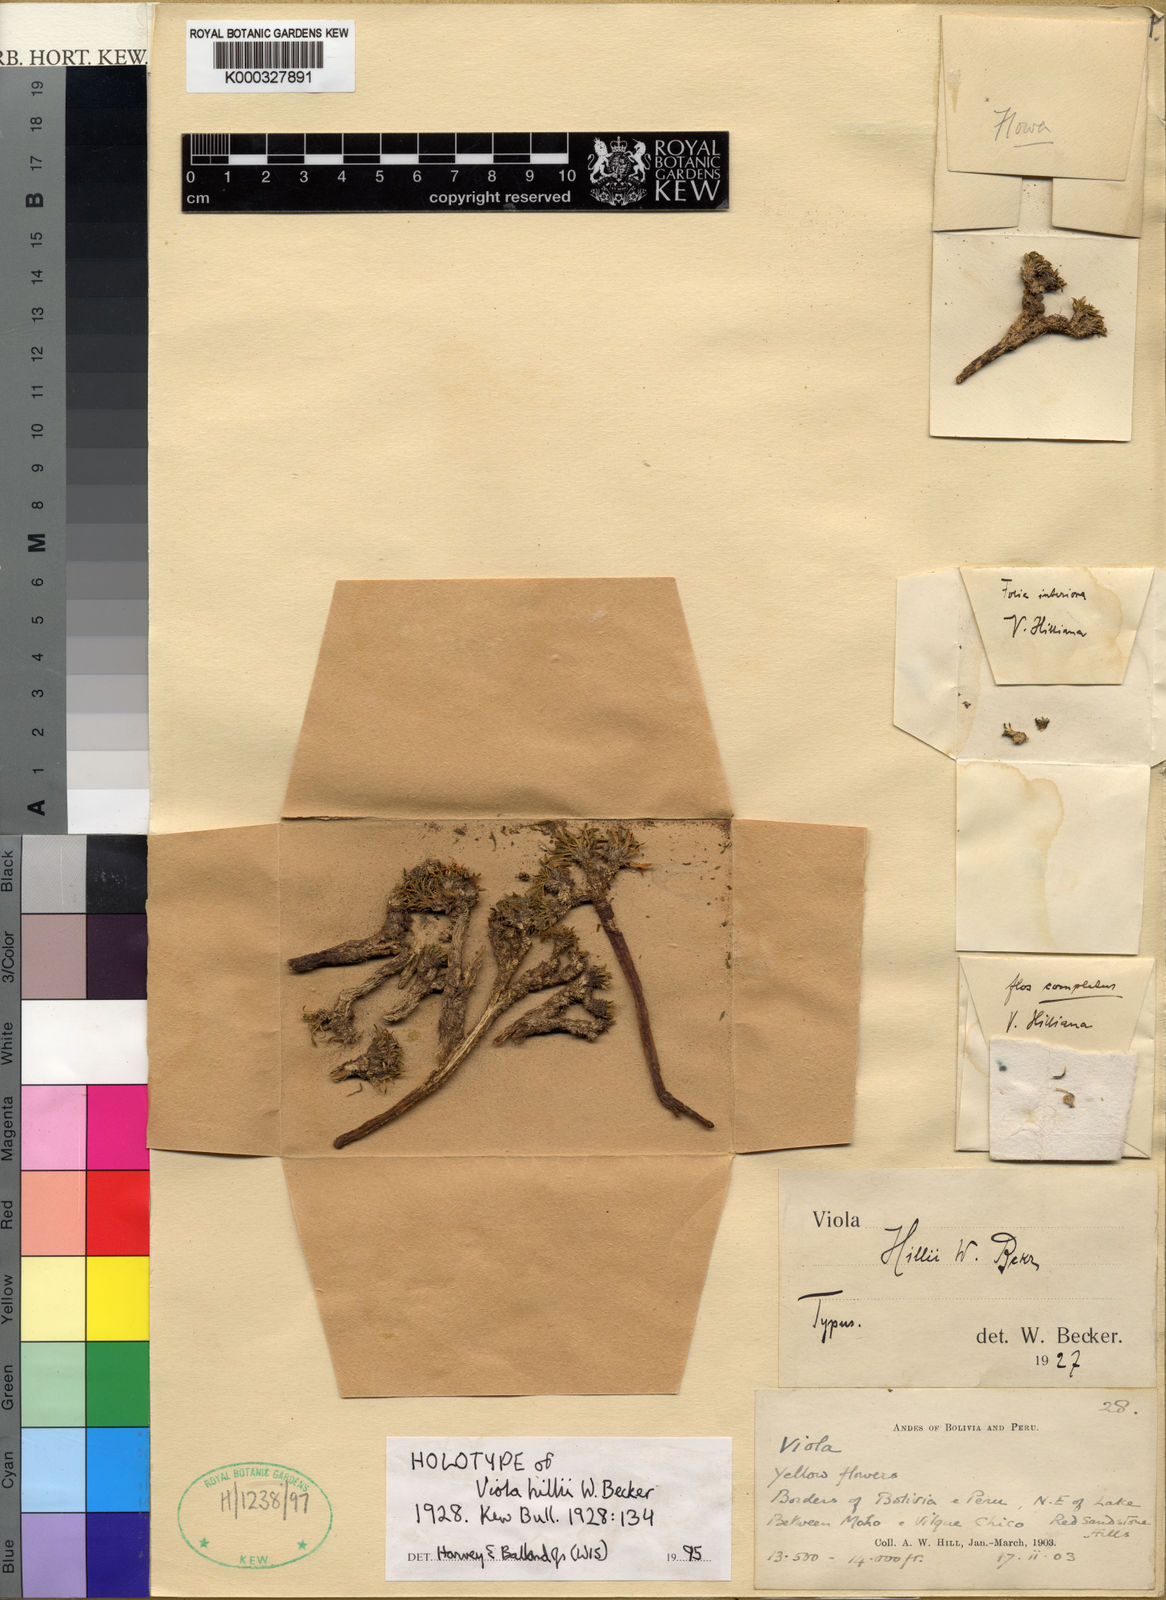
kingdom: Plantae
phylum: Tracheophyta
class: Magnoliopsida
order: Malpighiales
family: Violaceae
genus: Viola
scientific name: Viola hillii
